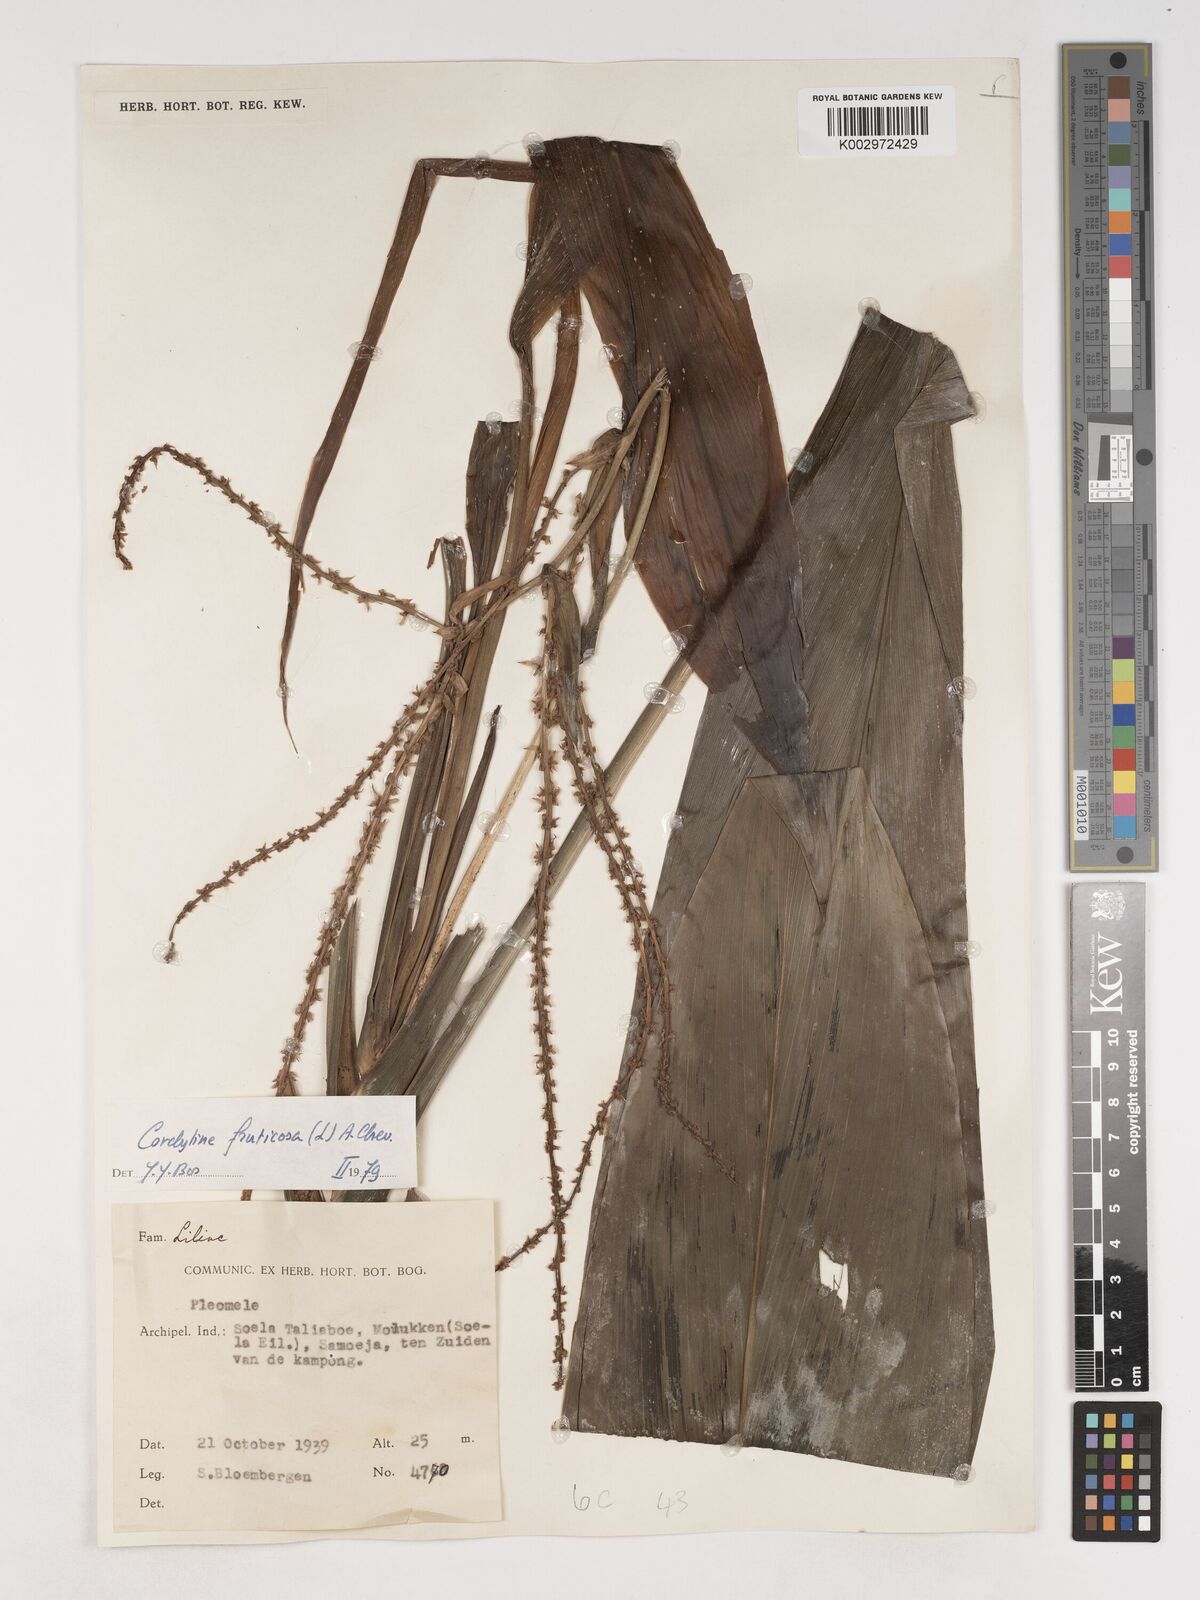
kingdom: Plantae
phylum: Tracheophyta
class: Liliopsida
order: Asparagales
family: Asparagaceae
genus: Cordyline
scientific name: Cordyline fruticosa
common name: Good-luck-plant
